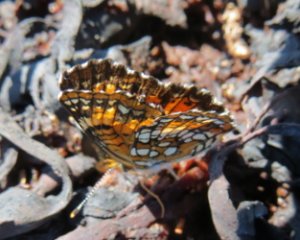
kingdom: Animalia
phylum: Arthropoda
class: Insecta
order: Lepidoptera
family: Nymphalidae
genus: Speyeria
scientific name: Speyeria atlantis
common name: Atlantis Fritillary
